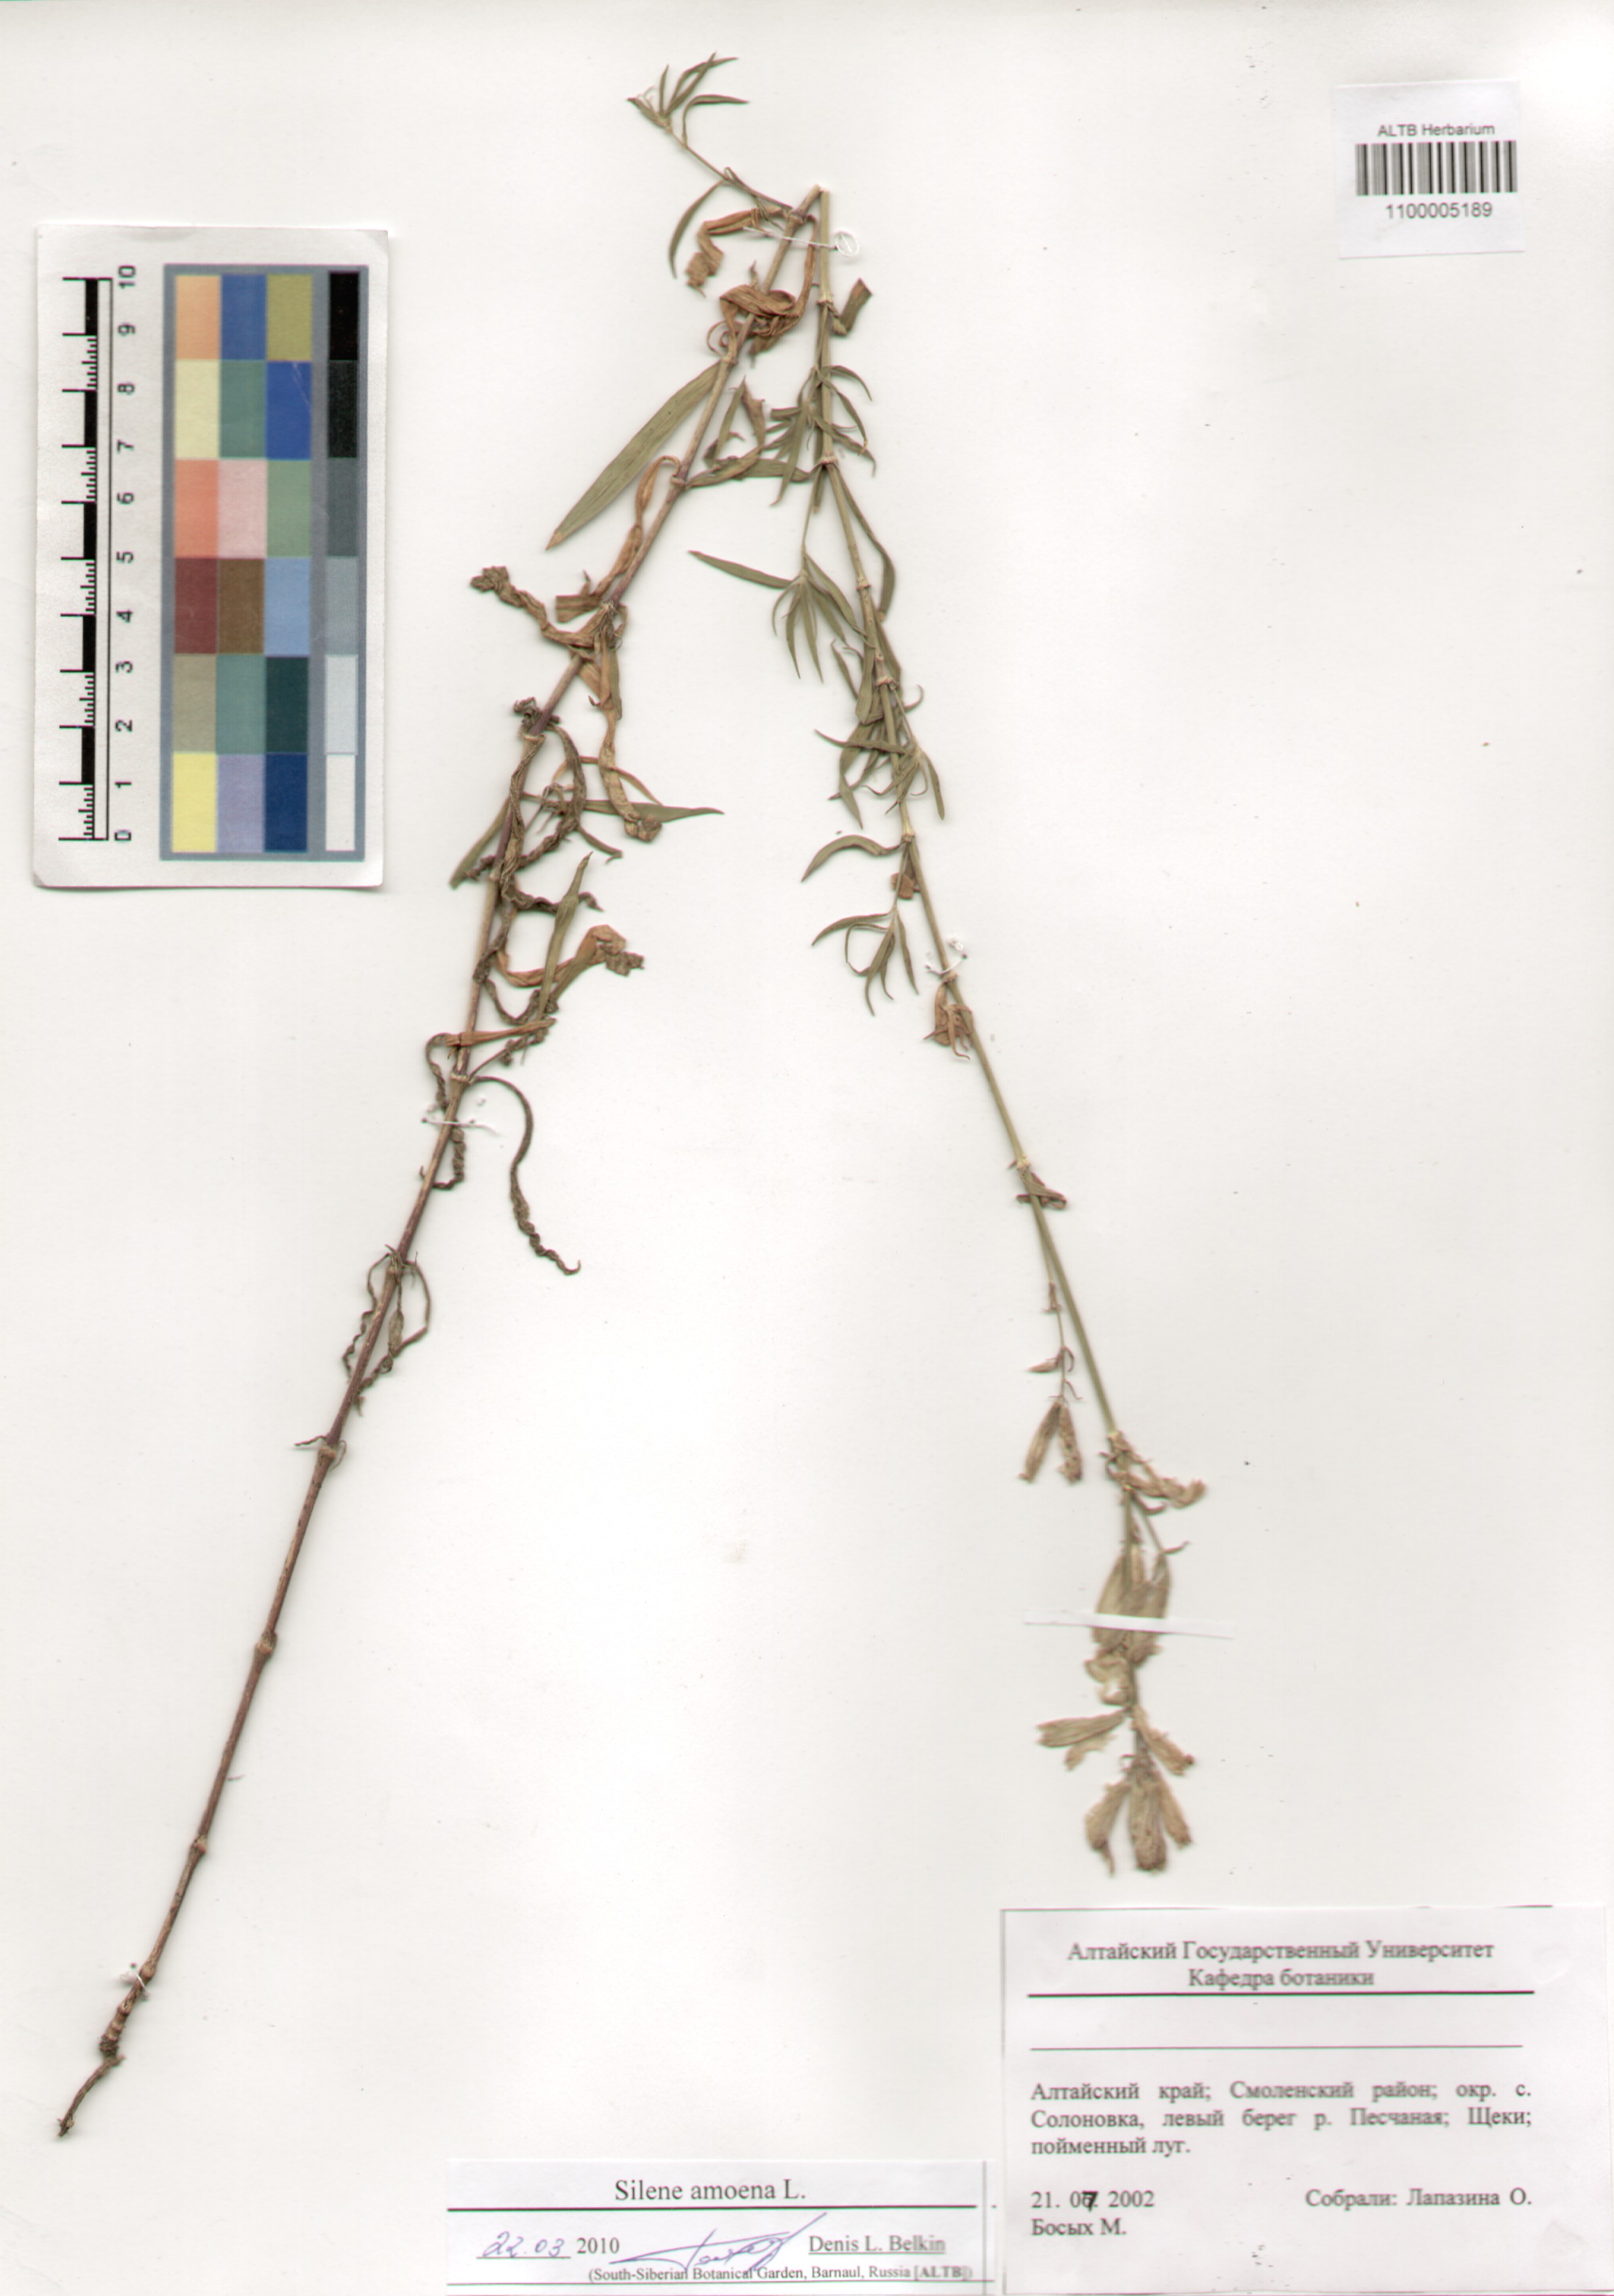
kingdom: Plantae
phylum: Tracheophyta
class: Magnoliopsida
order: Caryophyllales
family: Caryophyllaceae
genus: Silene
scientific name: Silene amoena
